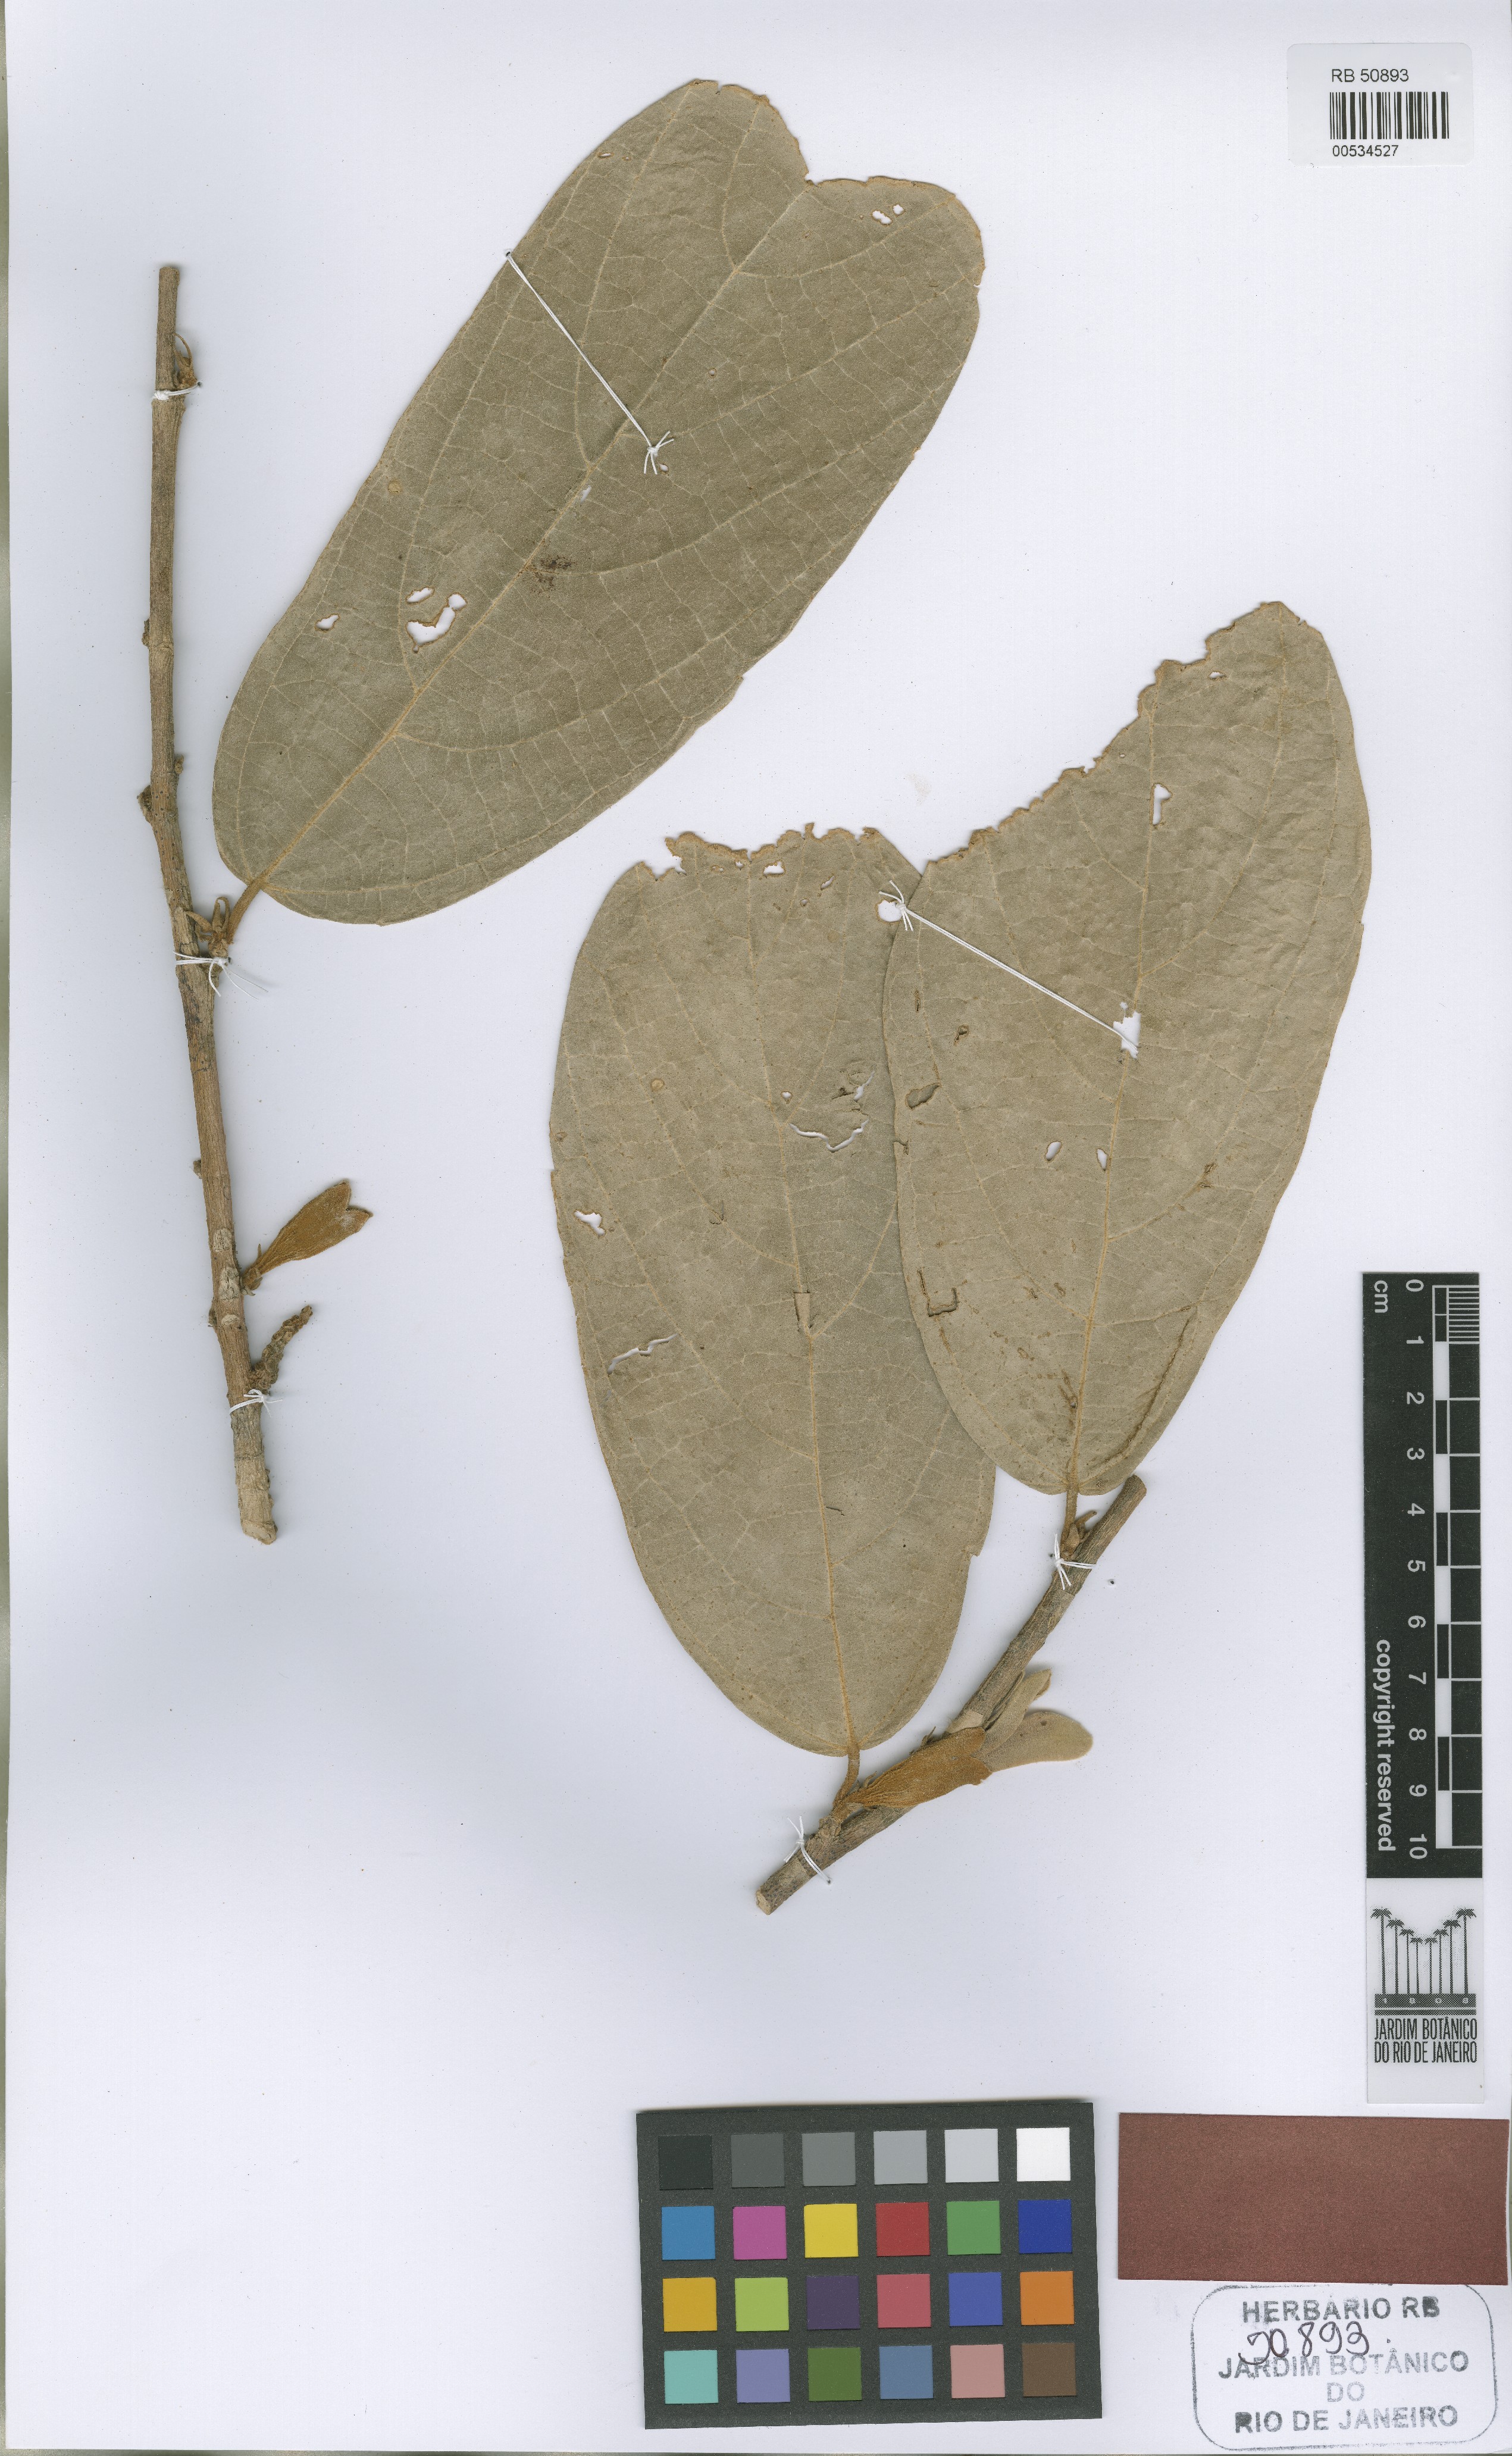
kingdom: Plantae
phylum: Tracheophyta
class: Magnoliopsida
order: Malvales
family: Malvaceae
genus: Quararibea
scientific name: Quararibea spatulata
